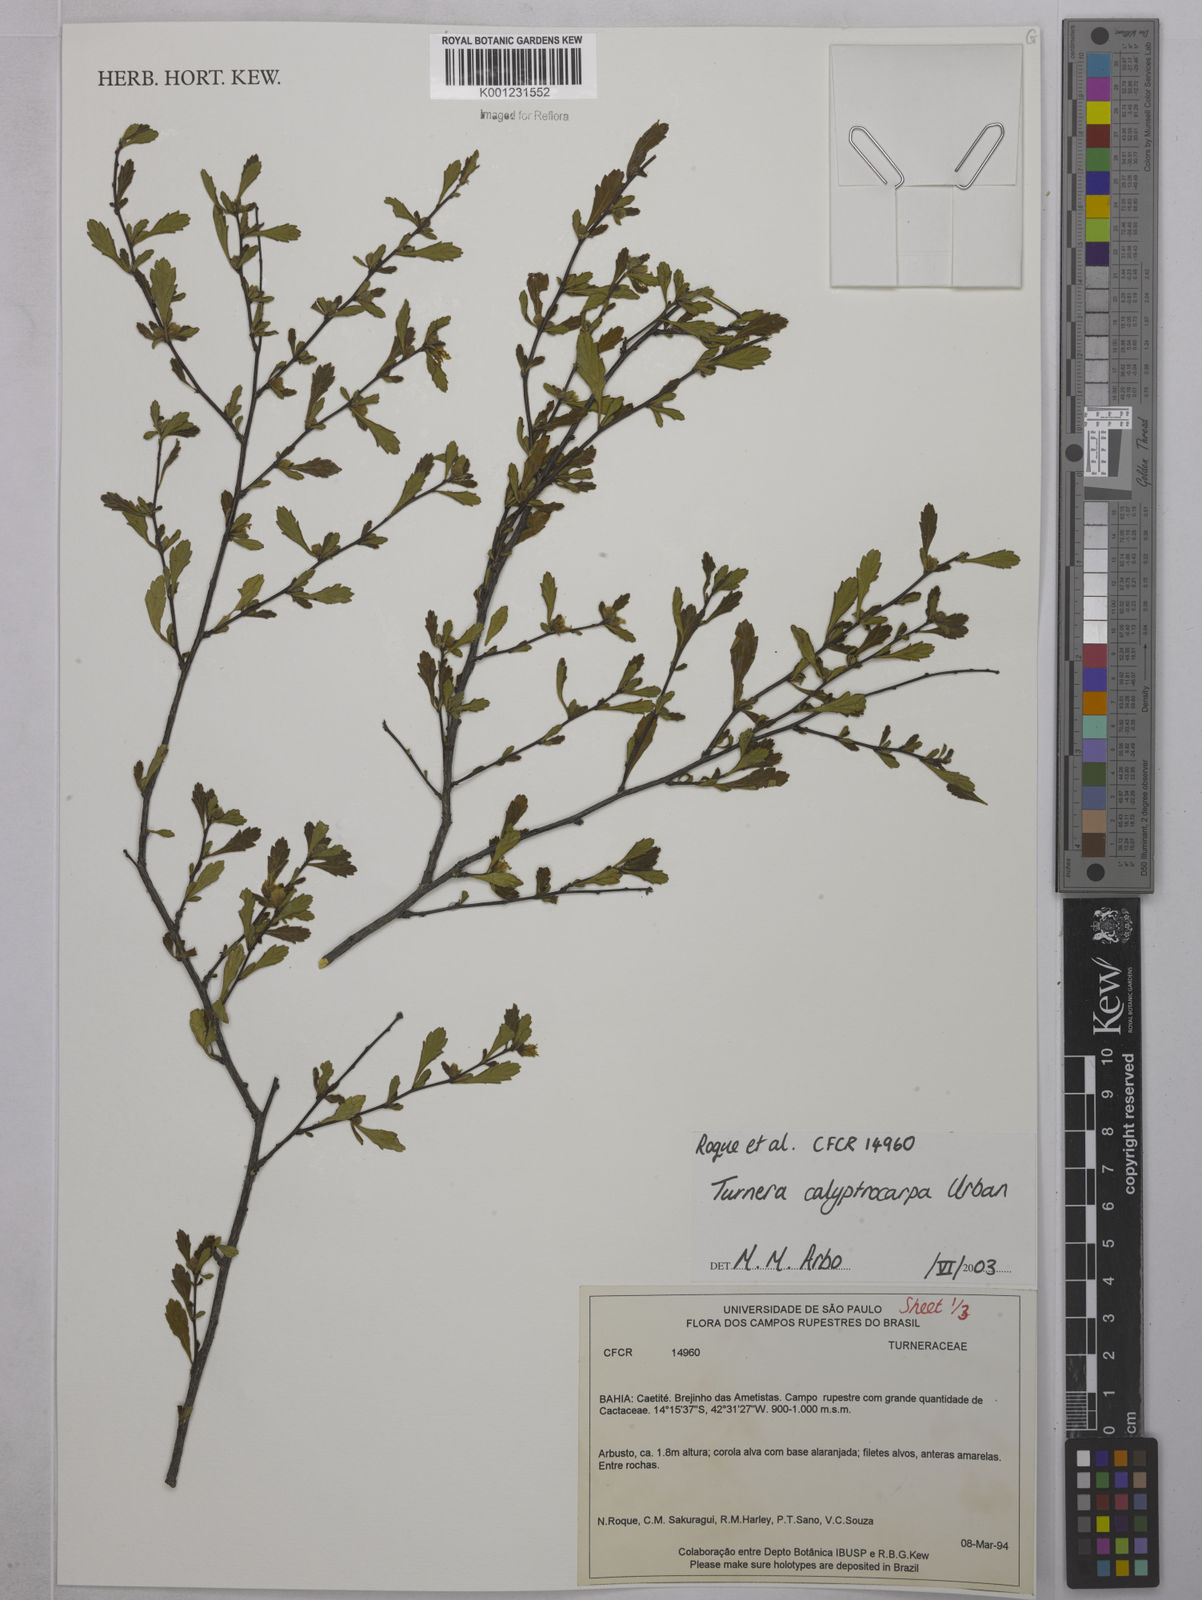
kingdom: Plantae
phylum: Tracheophyta
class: Magnoliopsida
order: Malpighiales
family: Turneraceae
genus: Oxossia
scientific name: Oxossia calyptrocarpa
